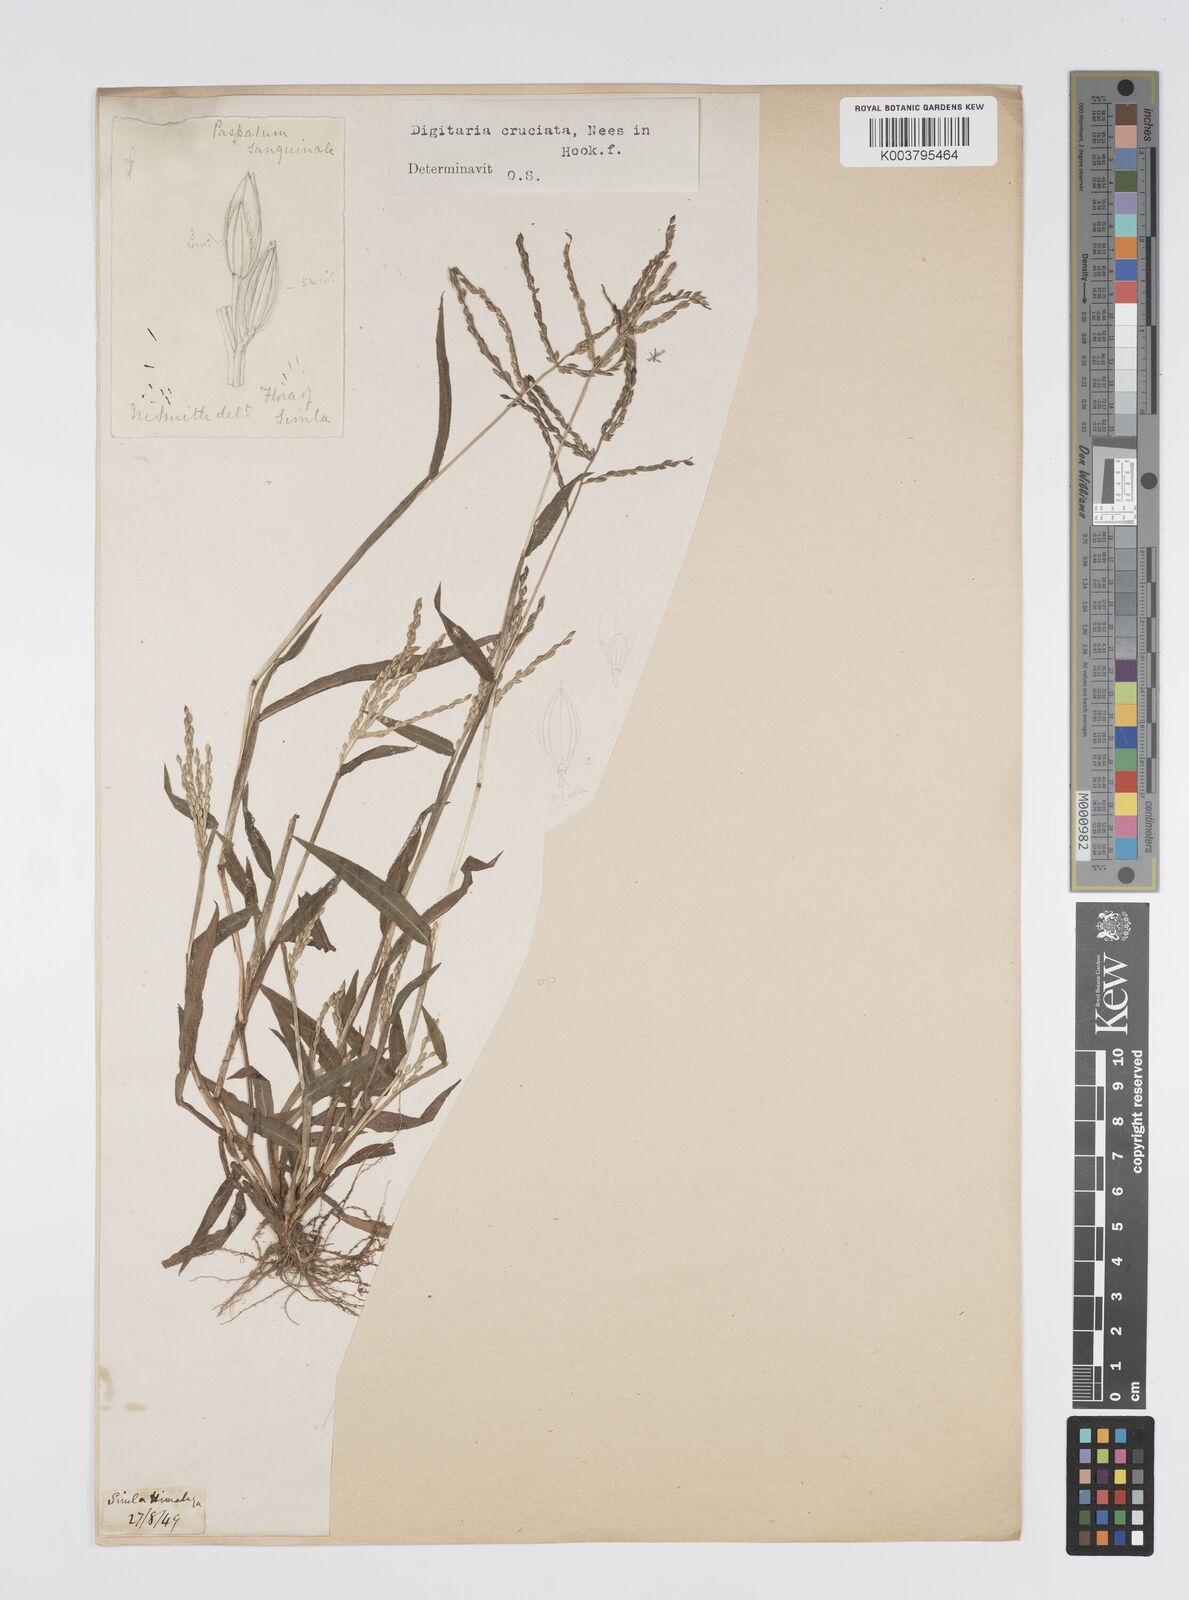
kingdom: Plantae
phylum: Tracheophyta
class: Liliopsida
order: Poales
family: Poaceae
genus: Digitaria
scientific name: Digitaria cruciata
